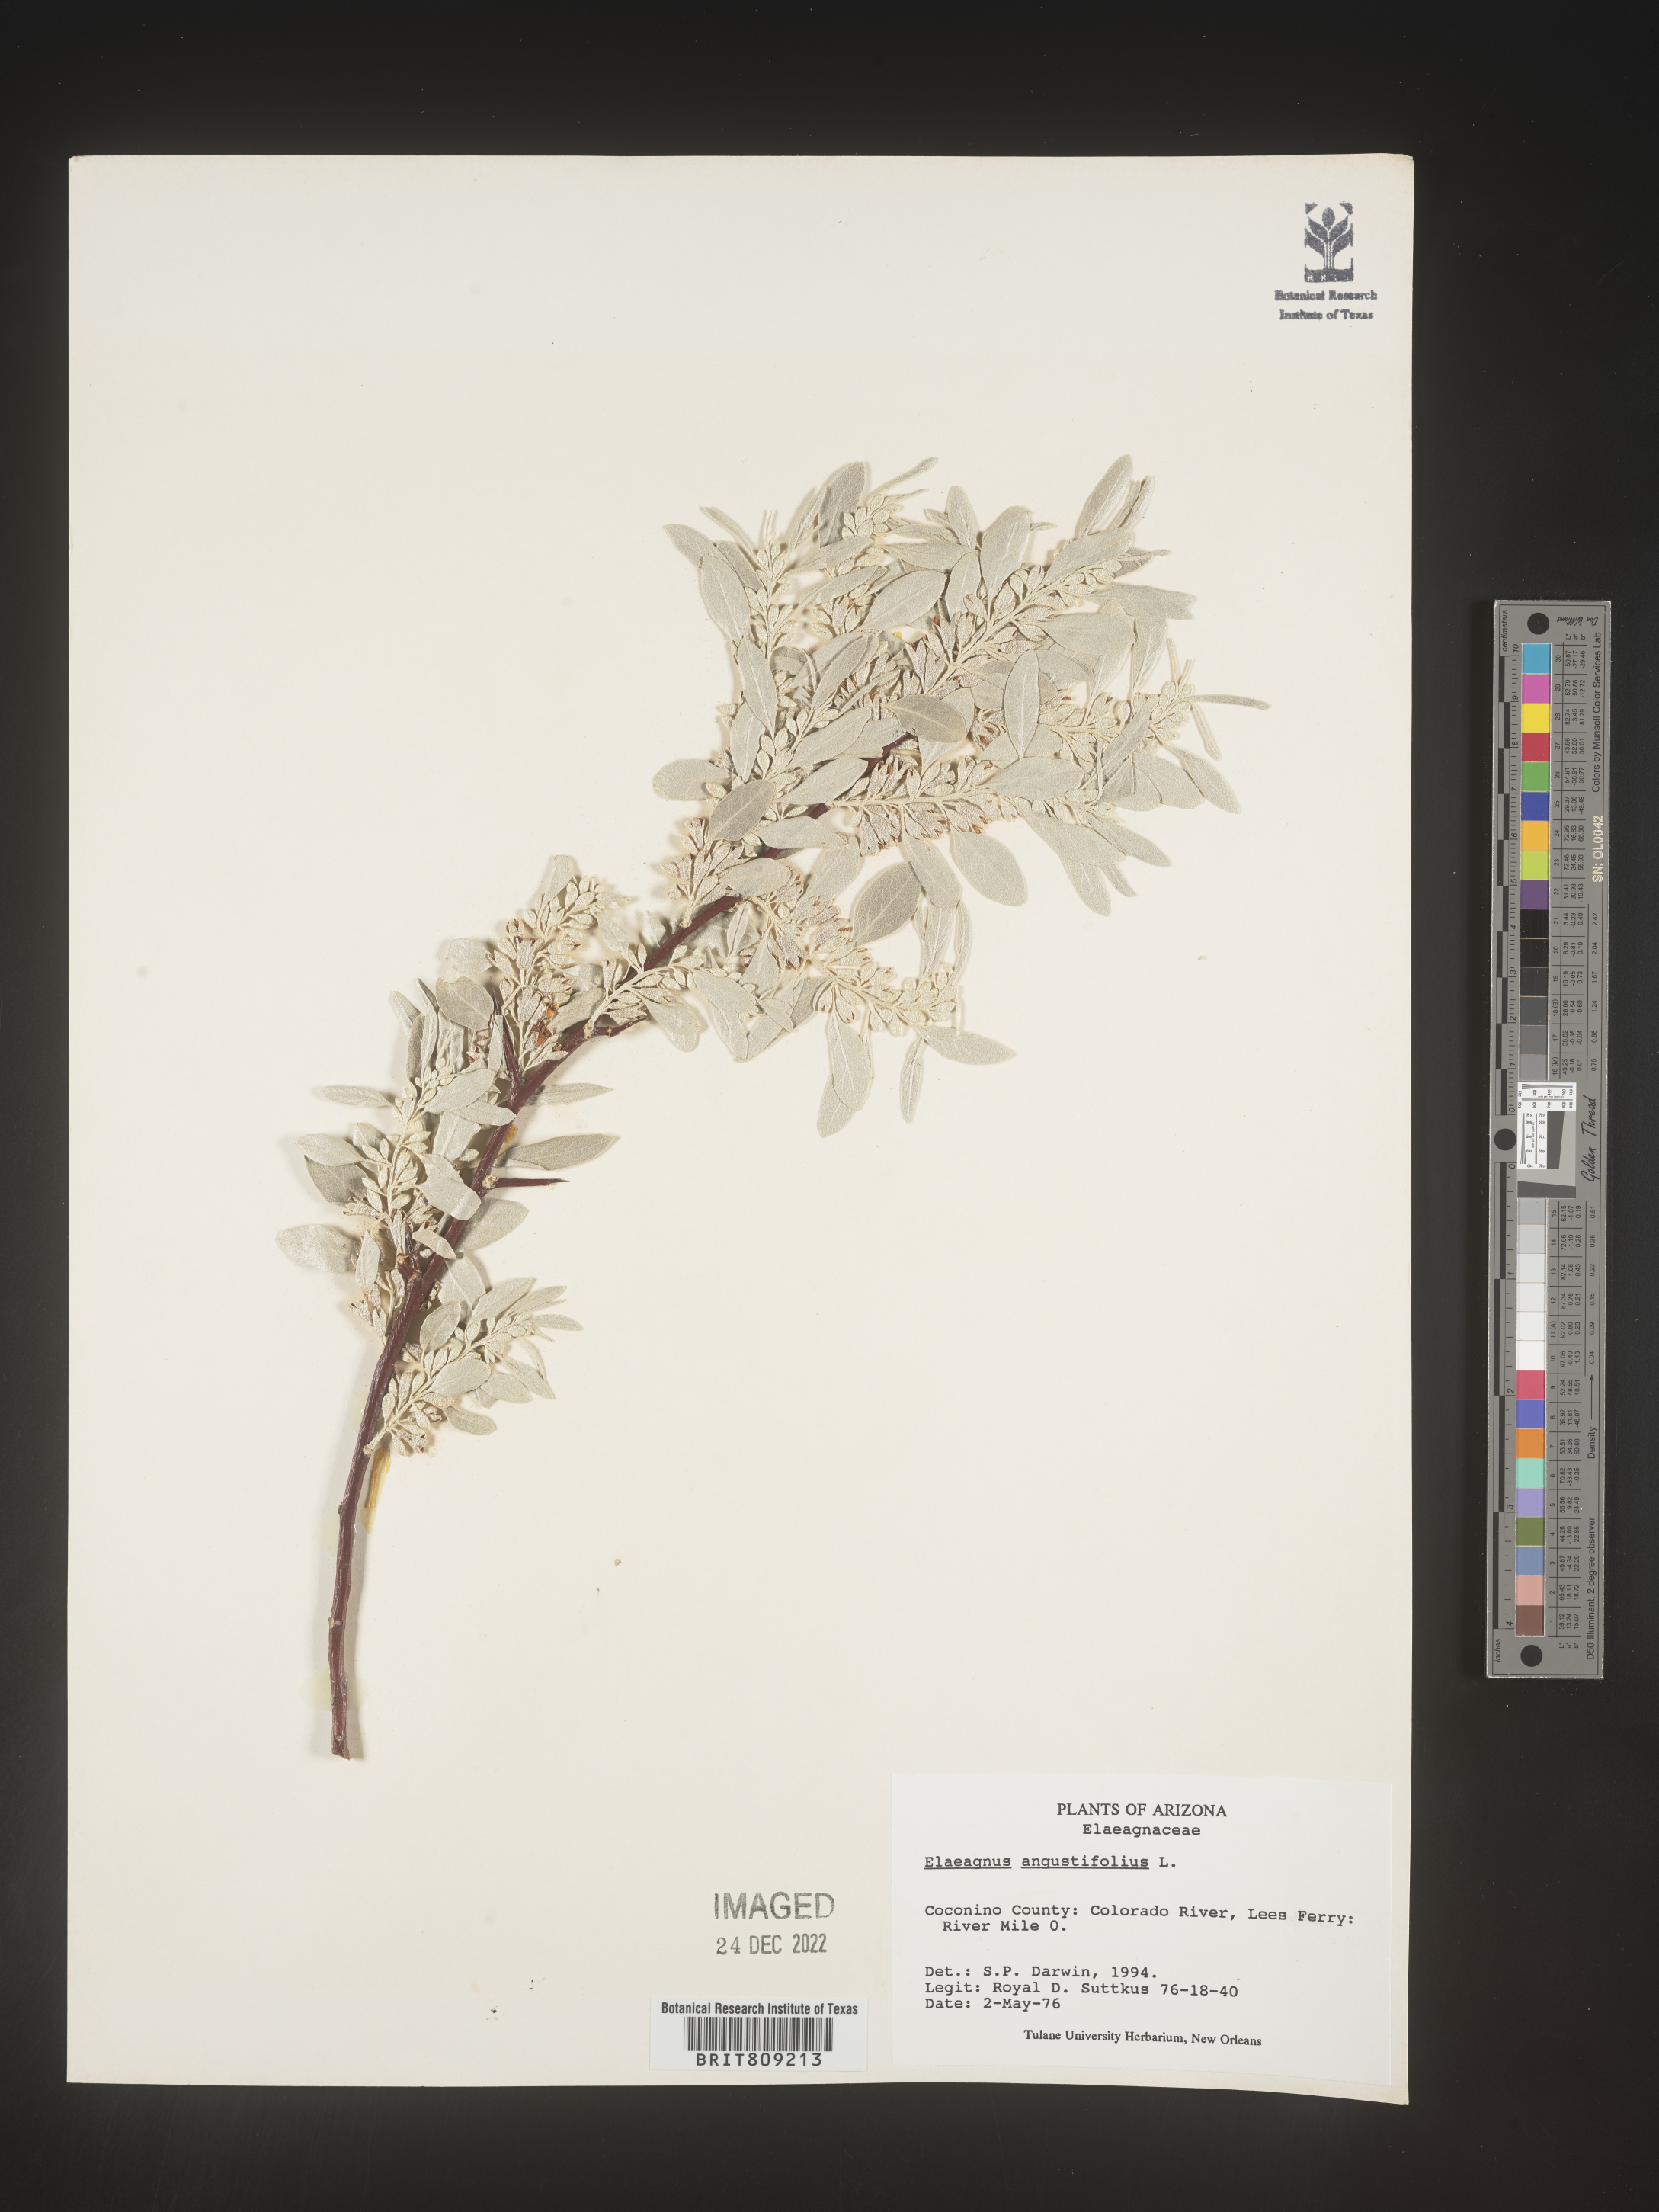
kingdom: Plantae
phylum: Tracheophyta
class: Magnoliopsida
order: Rosales
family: Elaeagnaceae
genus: Elaeagnus
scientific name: Elaeagnus angustifolia
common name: Russian olive
